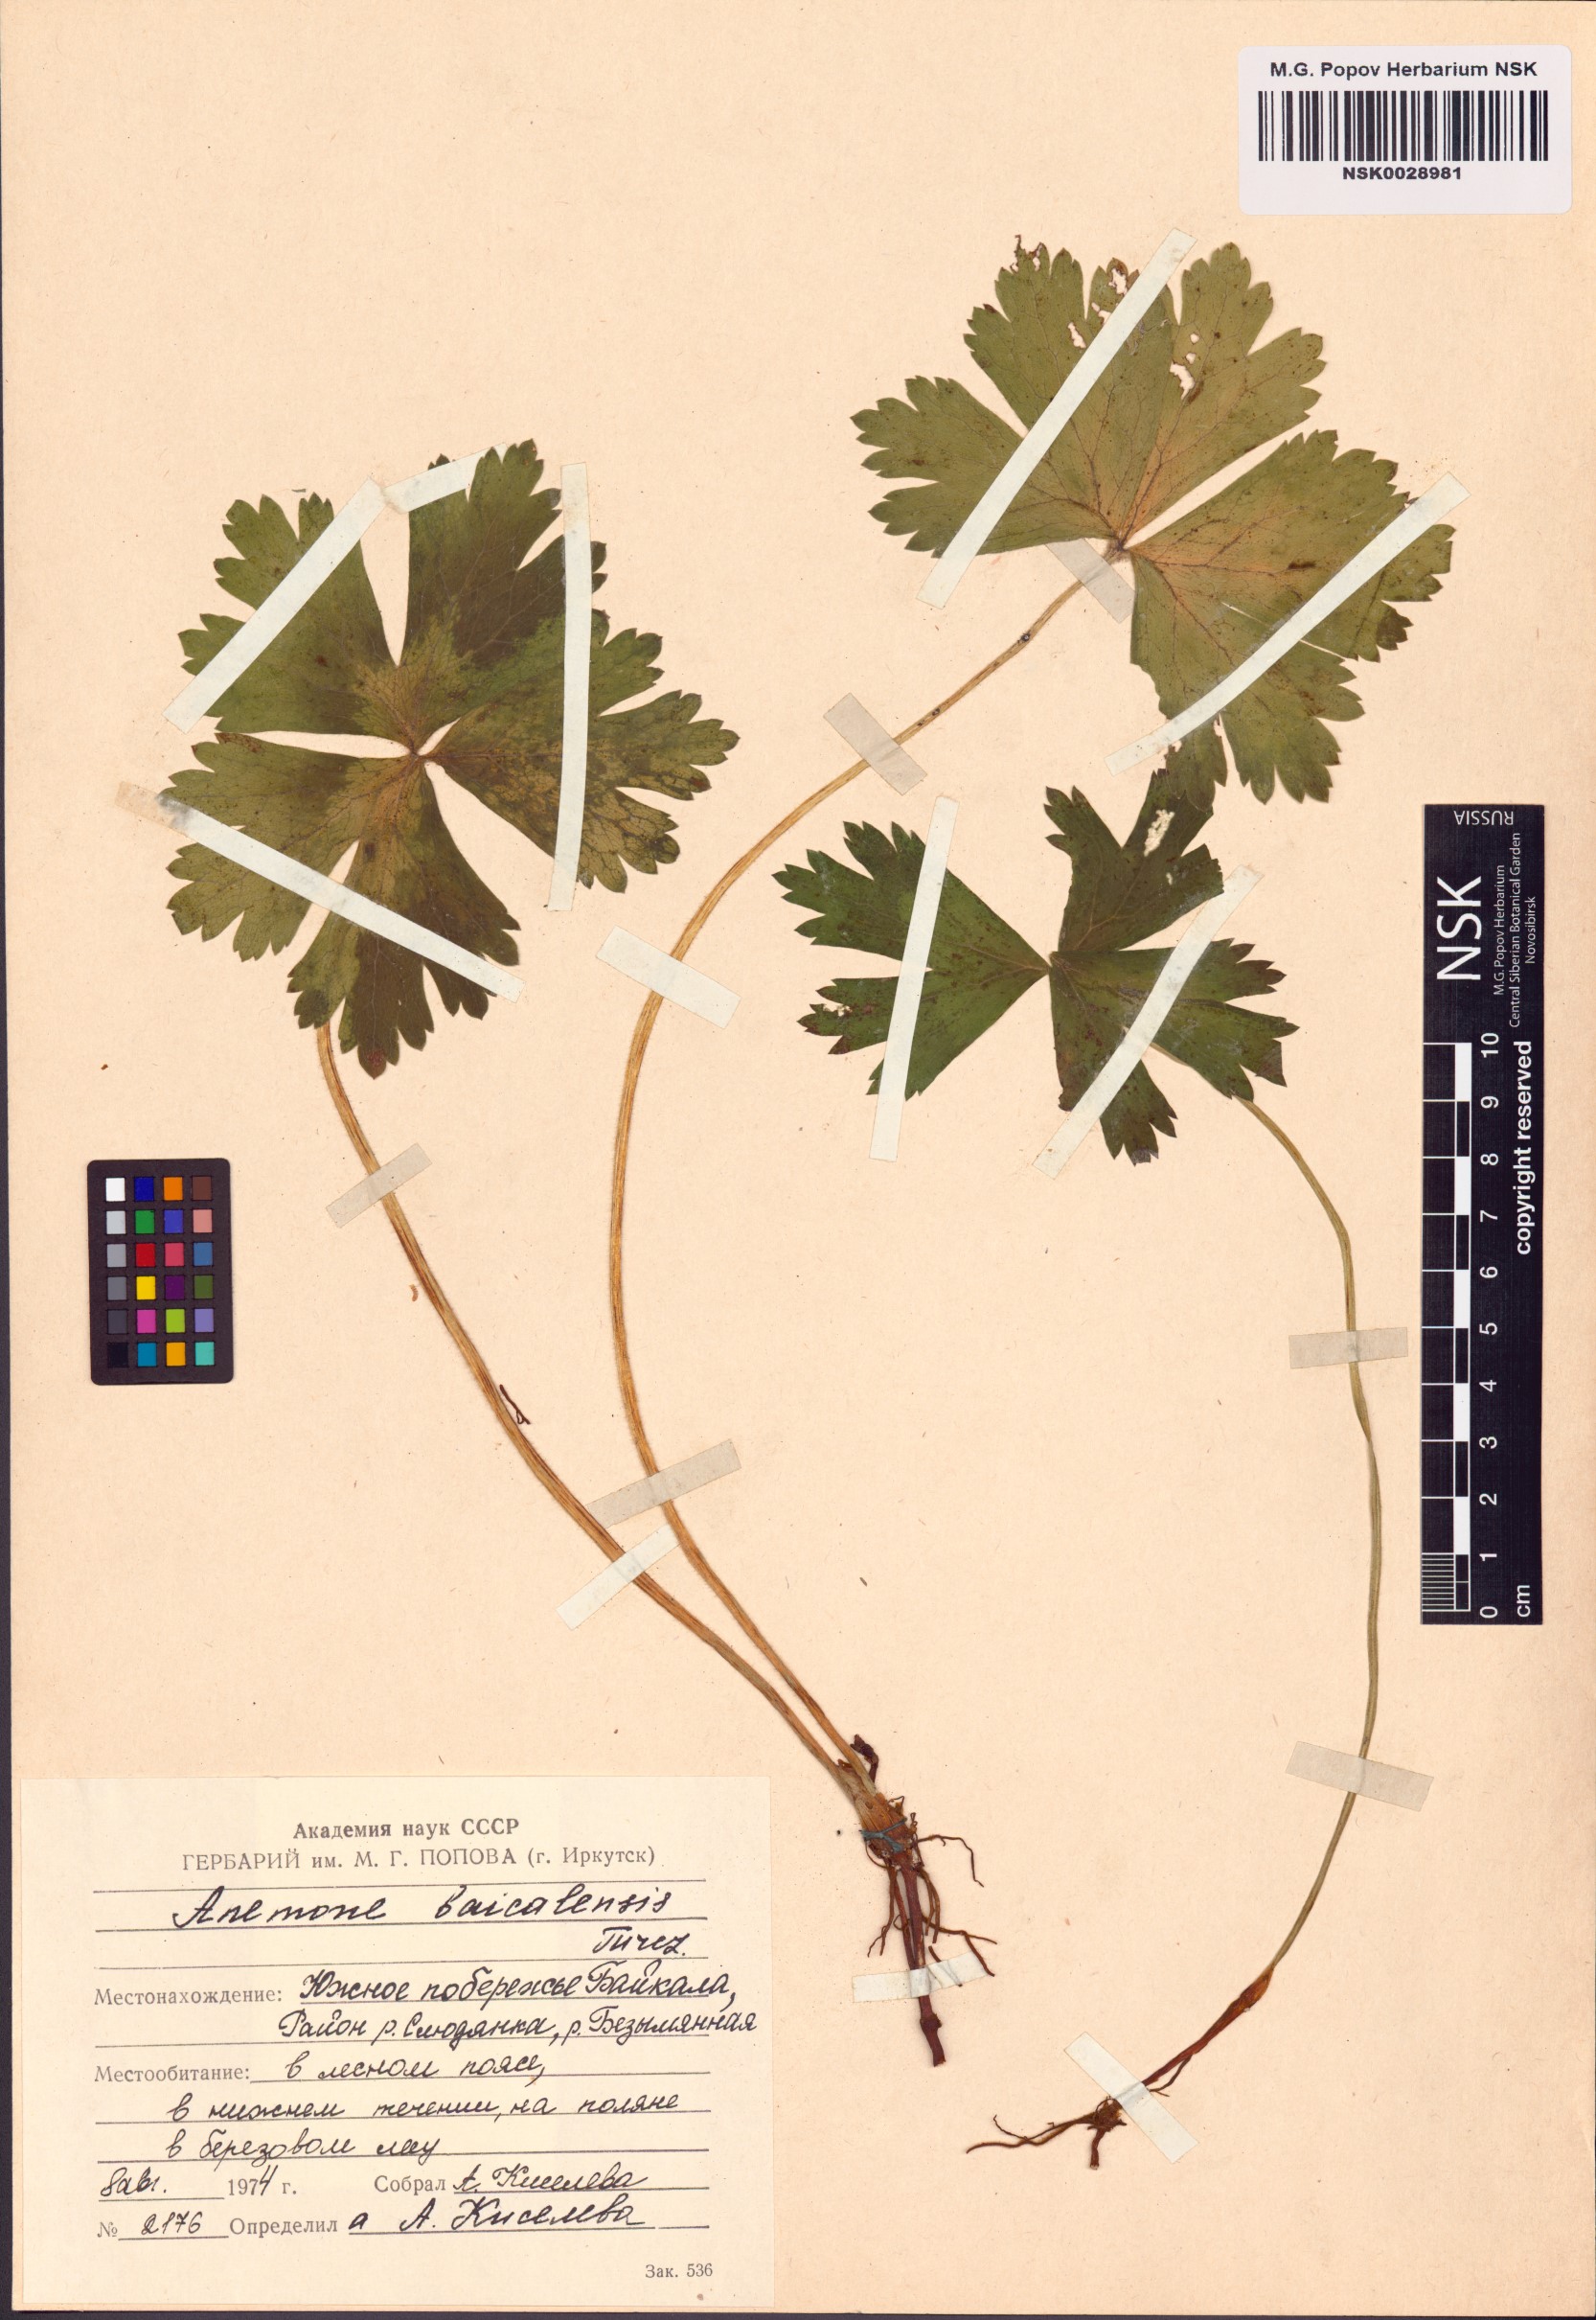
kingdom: Plantae
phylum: Tracheophyta
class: Magnoliopsida
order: Ranunculales
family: Ranunculaceae
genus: Anemonastrum
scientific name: Anemonastrum baicalense
